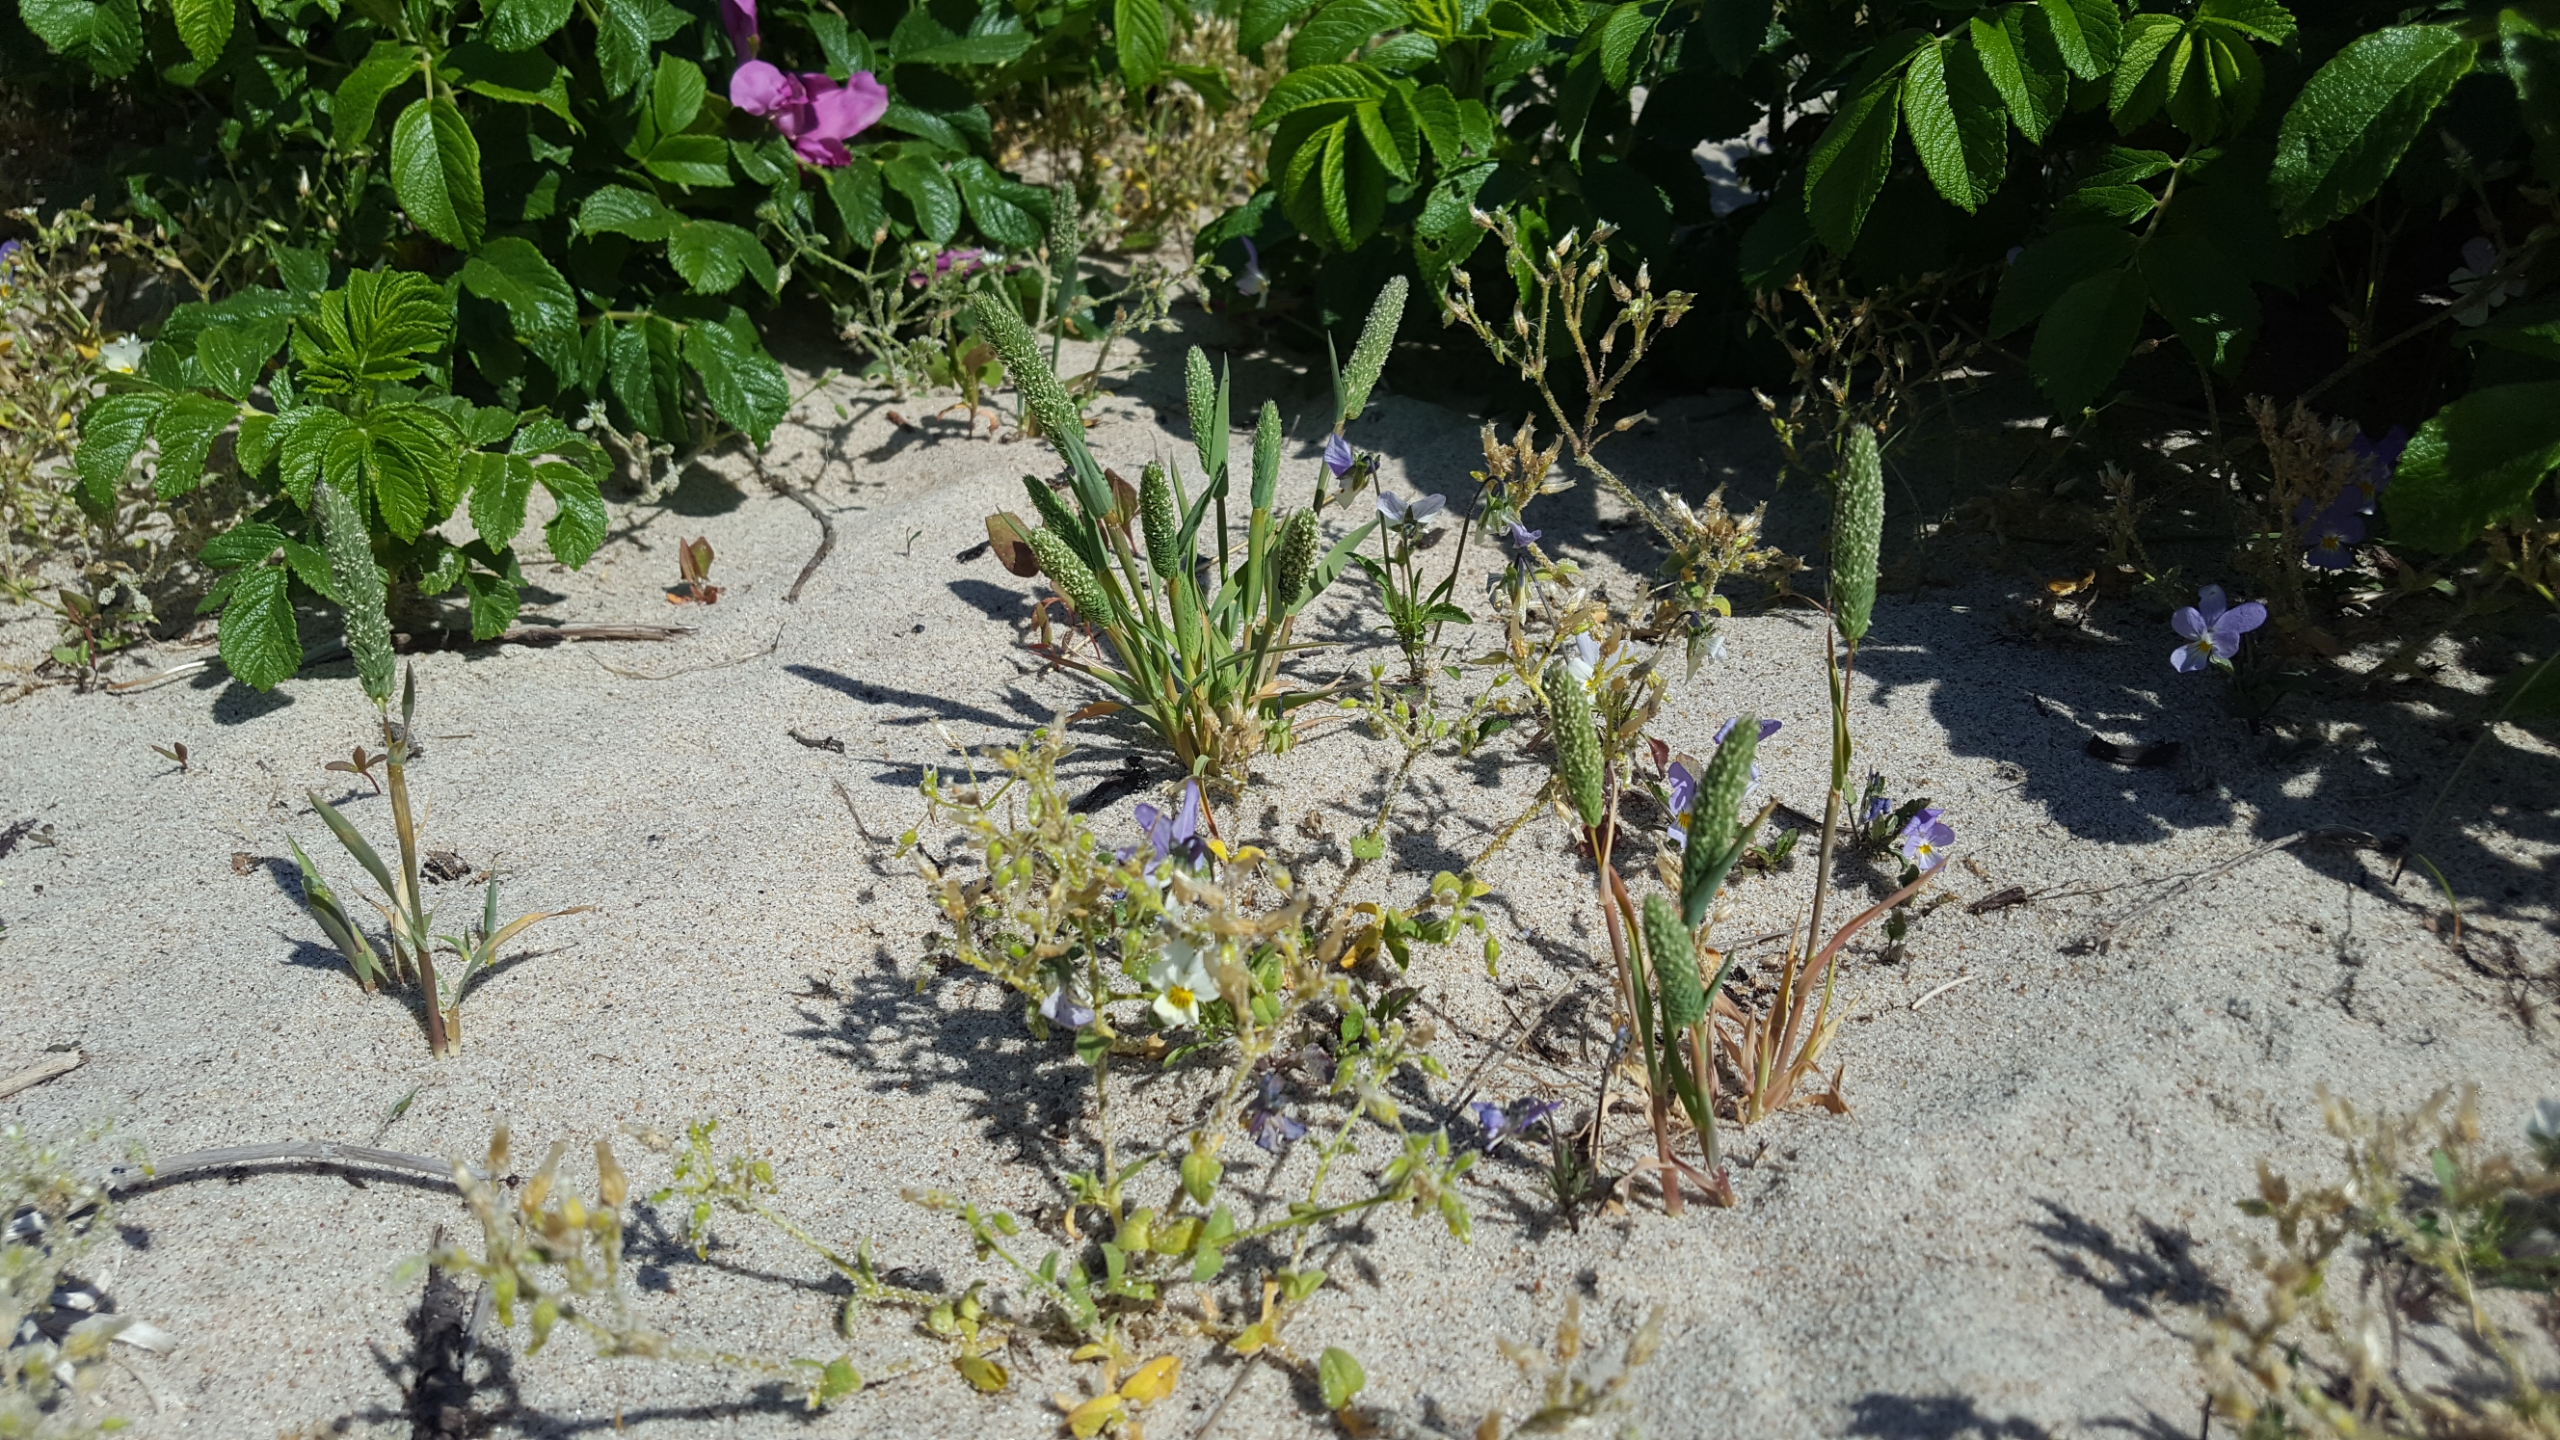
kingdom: Plantae
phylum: Tracheophyta
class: Liliopsida
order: Poales
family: Poaceae
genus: Phleum
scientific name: Phleum arenarium
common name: Sand-rottehale
